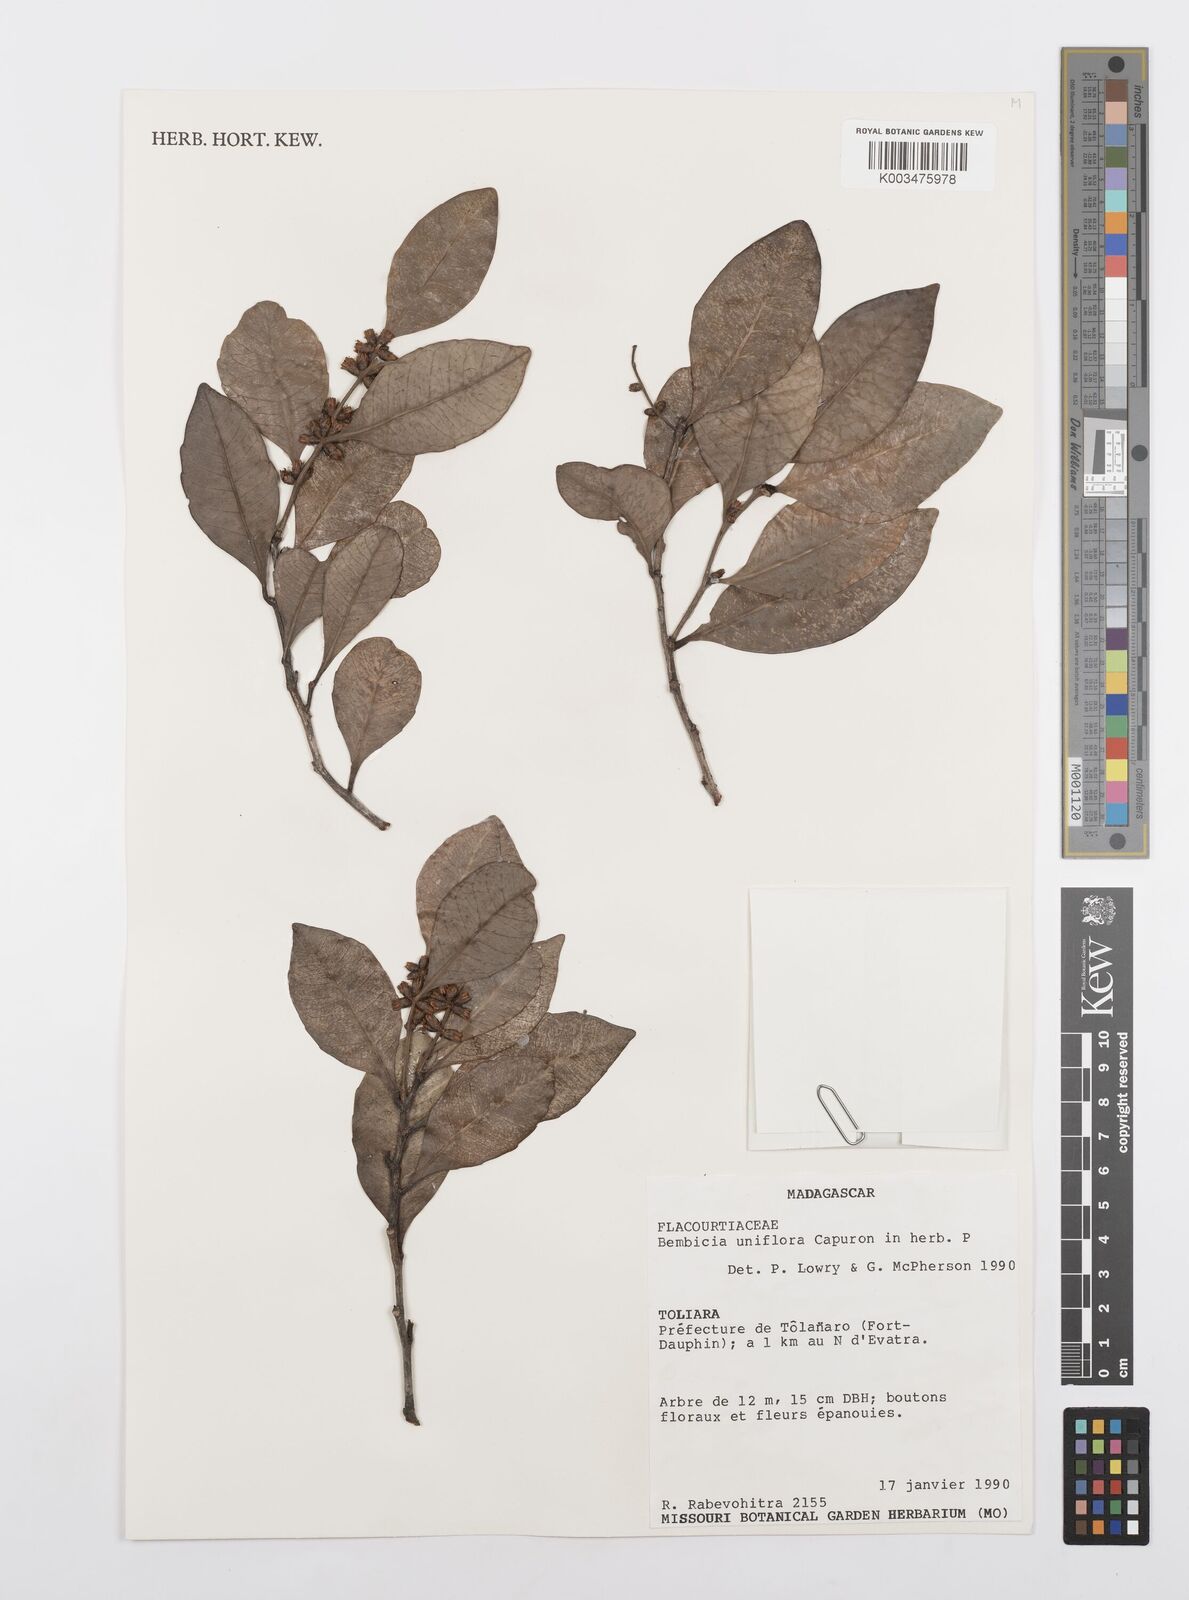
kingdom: Plantae
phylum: Tracheophyta
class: Magnoliopsida
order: Malpighiales
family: Salicaceae
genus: Bembicia
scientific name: Bembicia
